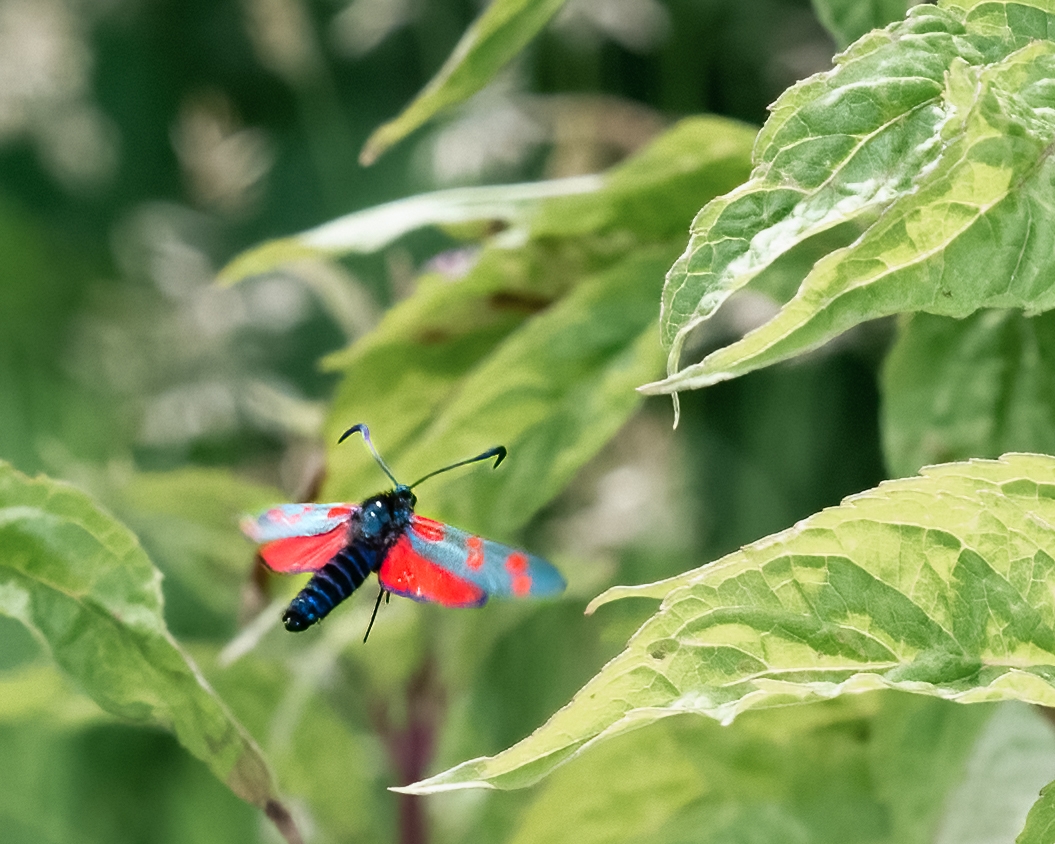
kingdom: Animalia
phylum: Arthropoda
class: Insecta
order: Lepidoptera
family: Zygaenidae
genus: Zygaena
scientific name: Zygaena filipendulae
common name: Seksplettet køllesværmer
